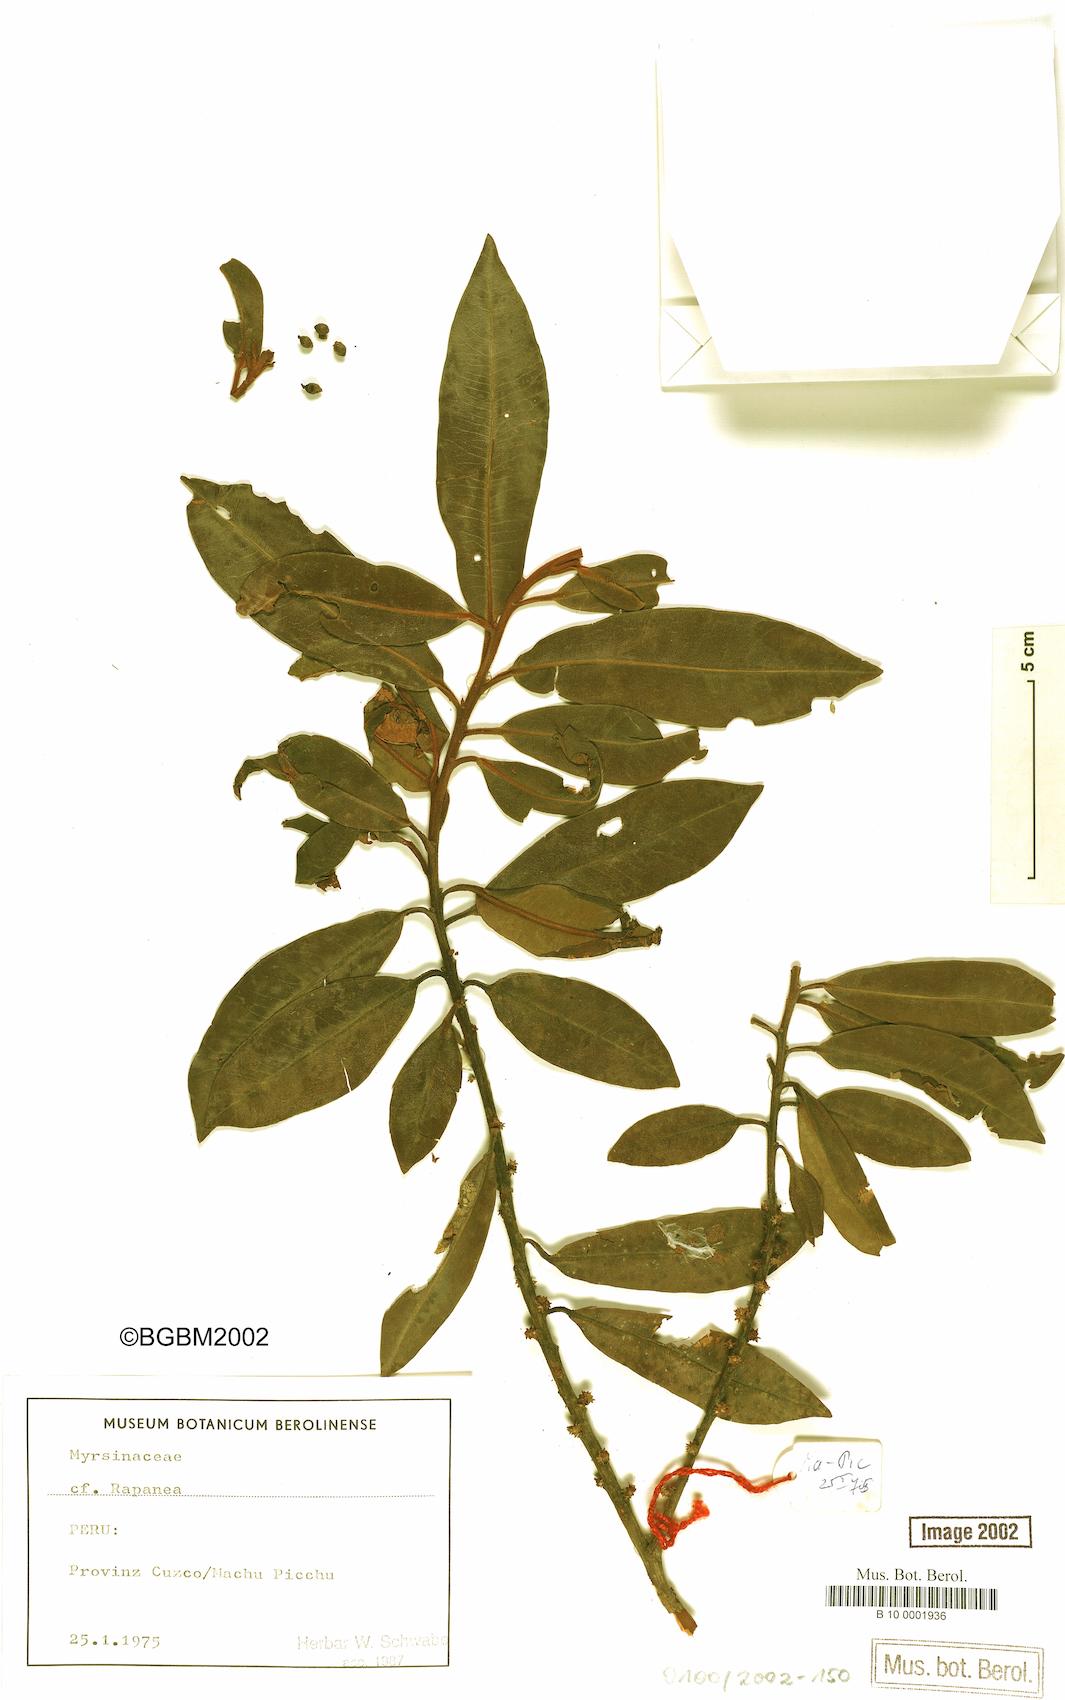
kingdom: Plantae
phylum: Tracheophyta
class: Magnoliopsida
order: Ericales
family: Primulaceae
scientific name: Primulaceae
